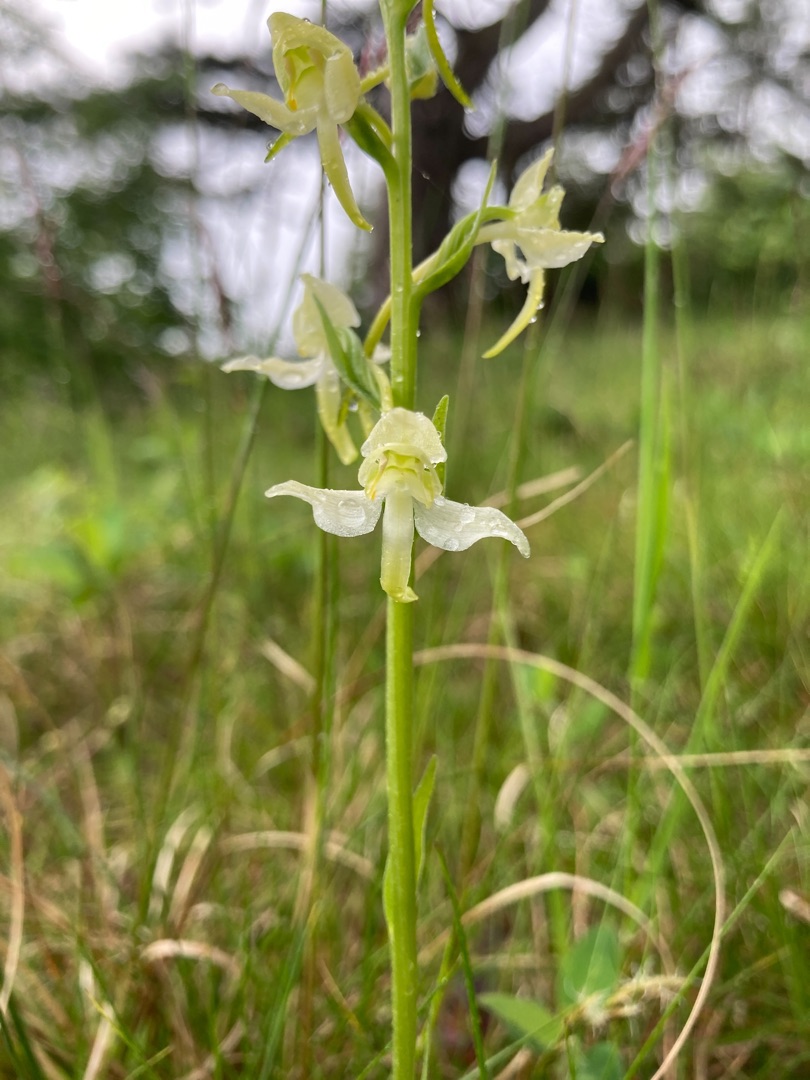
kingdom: Plantae
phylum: Tracheophyta
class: Liliopsida
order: Asparagales
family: Orchidaceae
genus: Platanthera
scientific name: Platanthera chlorantha
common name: Skov-gøgelilje
